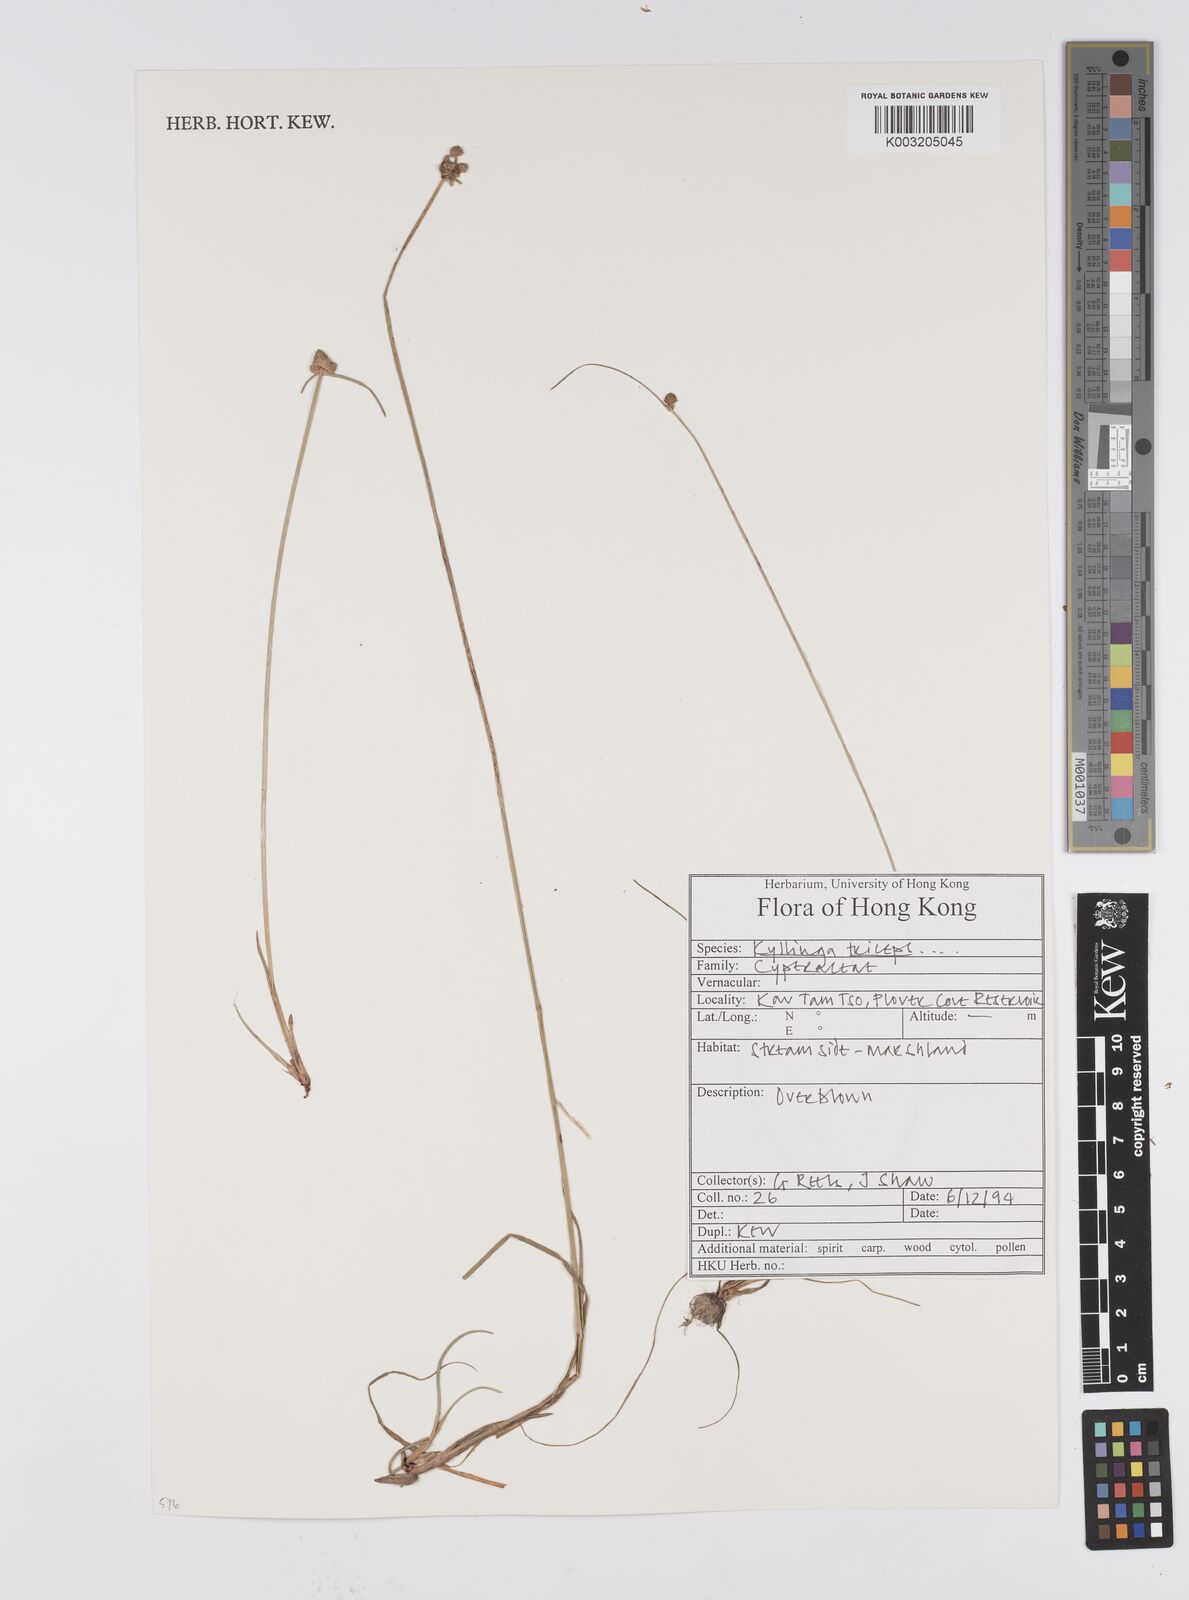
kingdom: Plantae
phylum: Tracheophyta
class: Liliopsida
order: Poales
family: Cyperaceae
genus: Cyperus
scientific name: Cyperus
